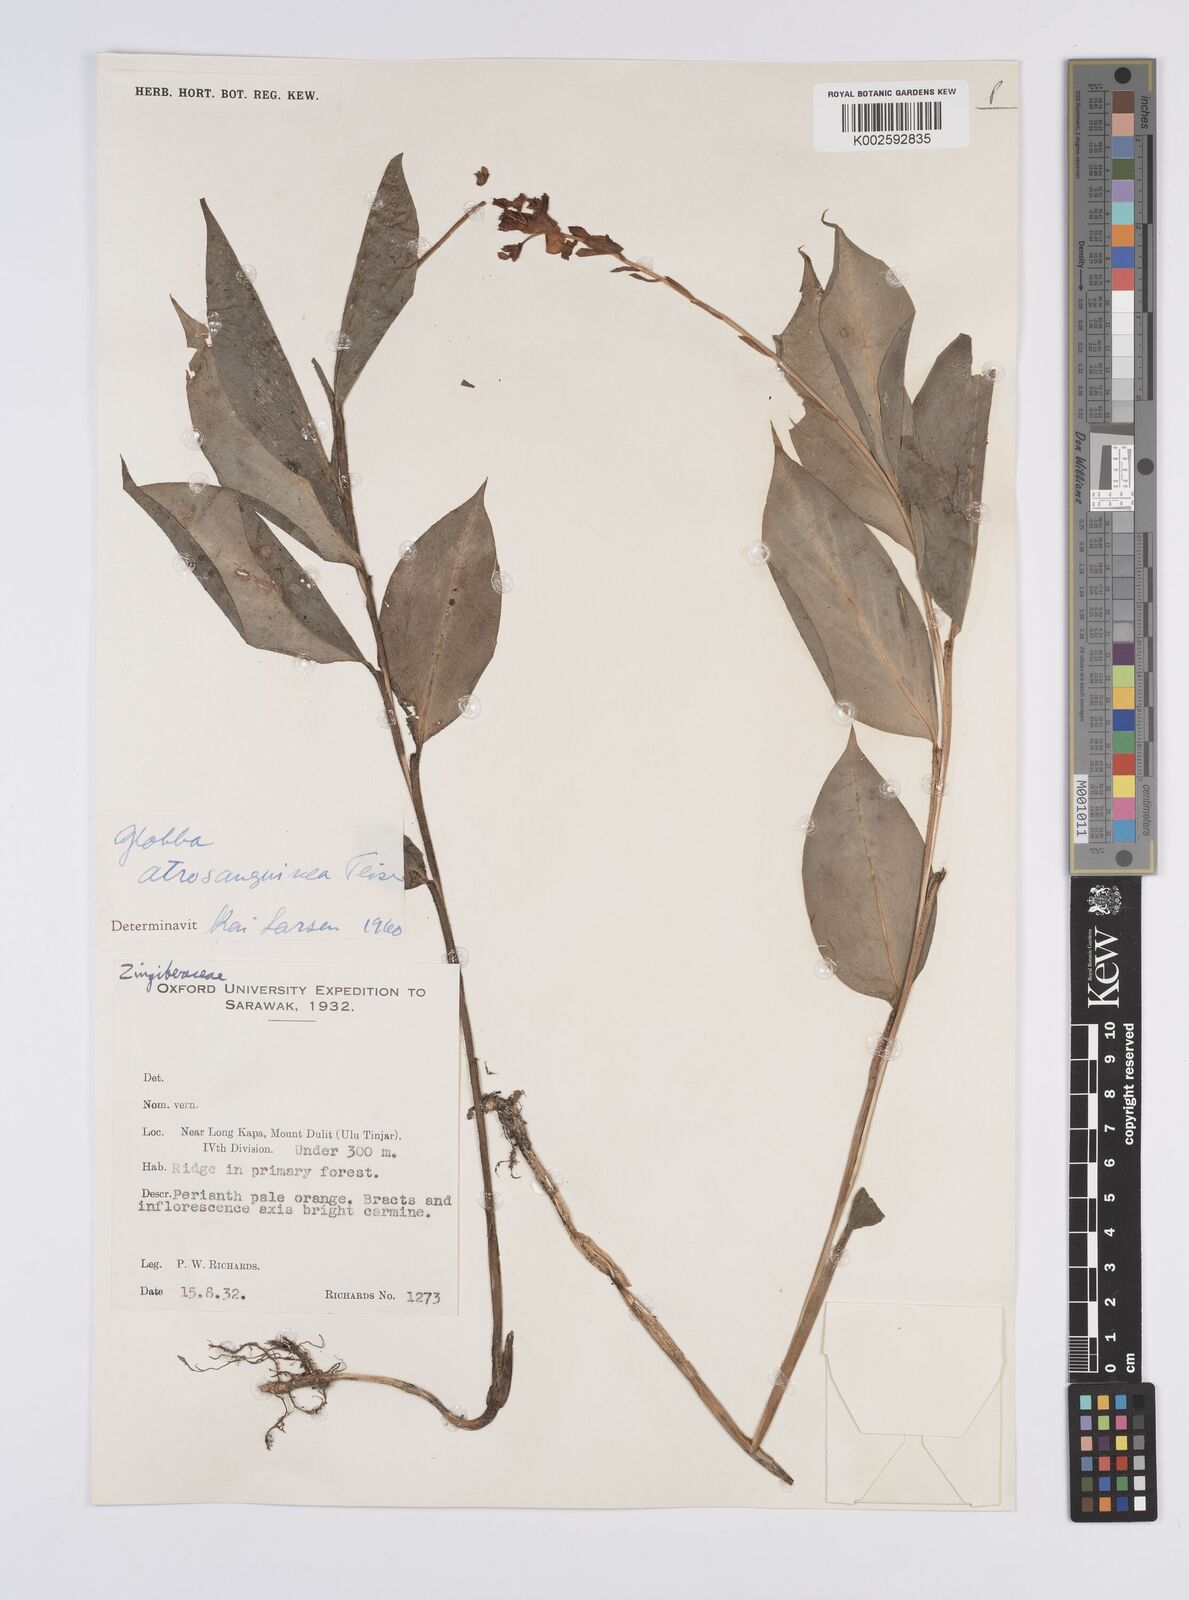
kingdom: Plantae
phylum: Tracheophyta
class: Liliopsida
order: Zingiberales
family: Zingiberaceae
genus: Globba
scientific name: Globba atrosanguinea
